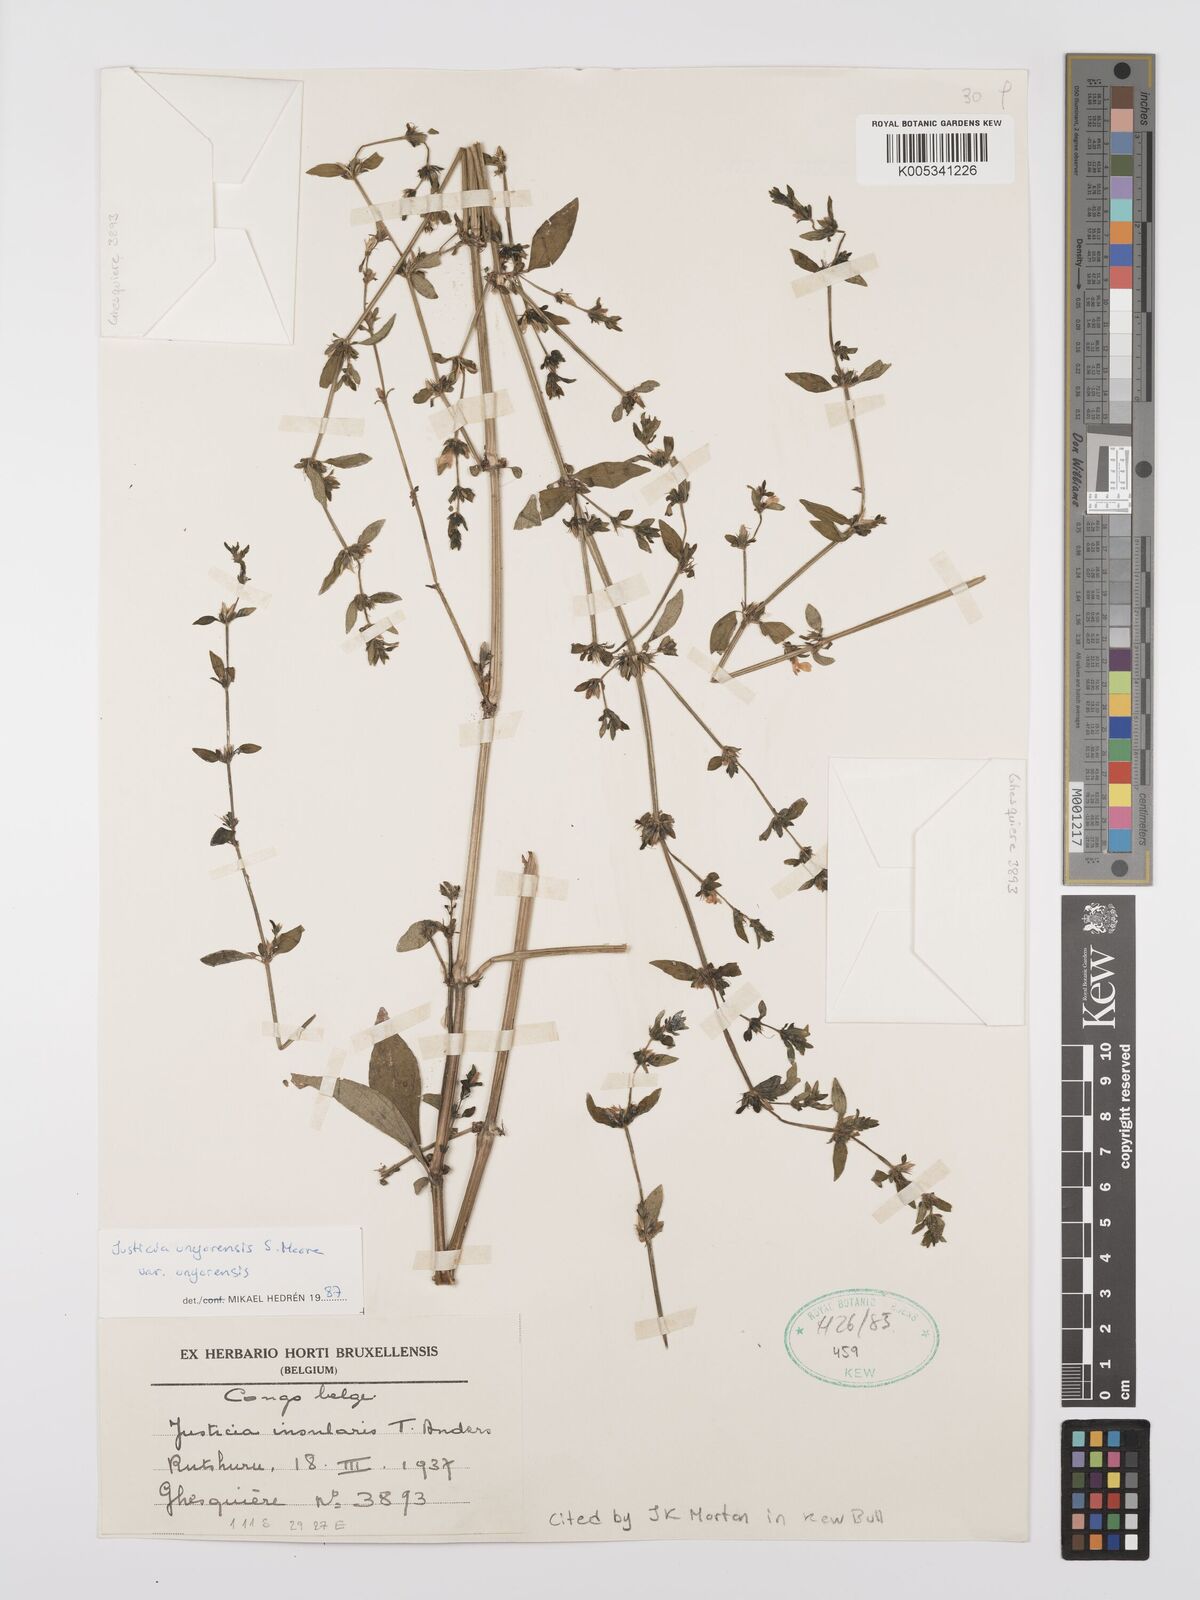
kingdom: Plantae
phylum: Tracheophyta
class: Magnoliopsida
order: Lamiales
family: Acanthaceae
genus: Justicia
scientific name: Justicia unyorensis
